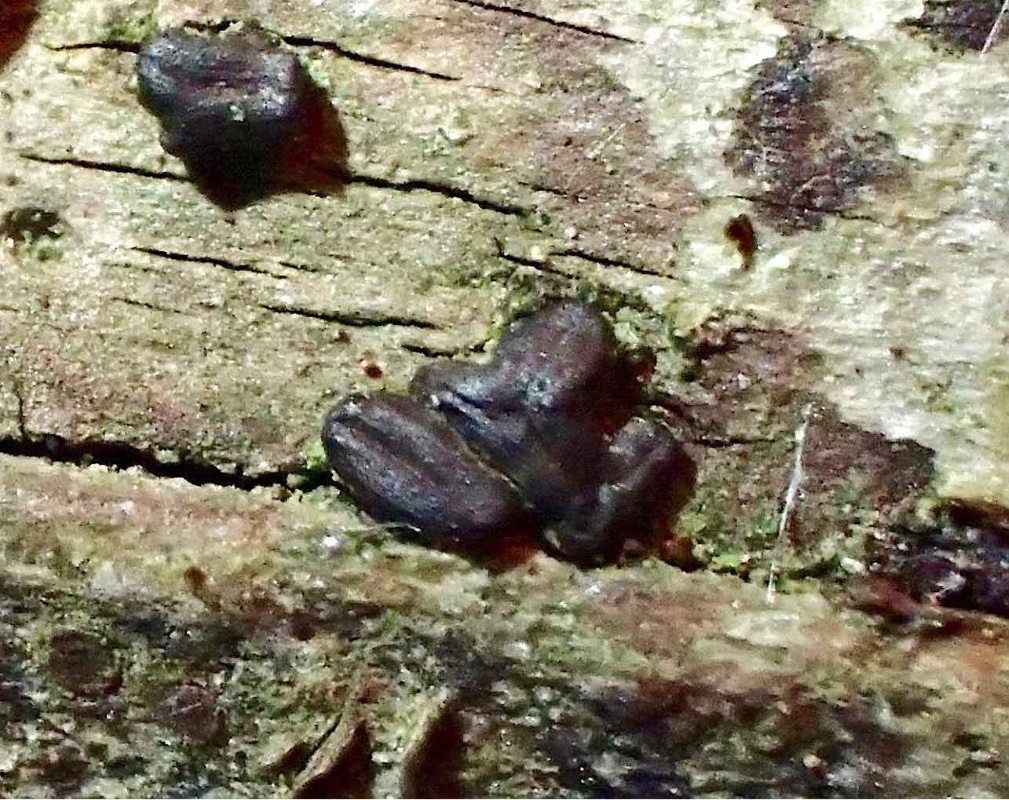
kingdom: Fungi
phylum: Ascomycota
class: Dothideomycetes
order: Hysteriales
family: Hysteriaceae
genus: Hysterium
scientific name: Hysterium pulicare
